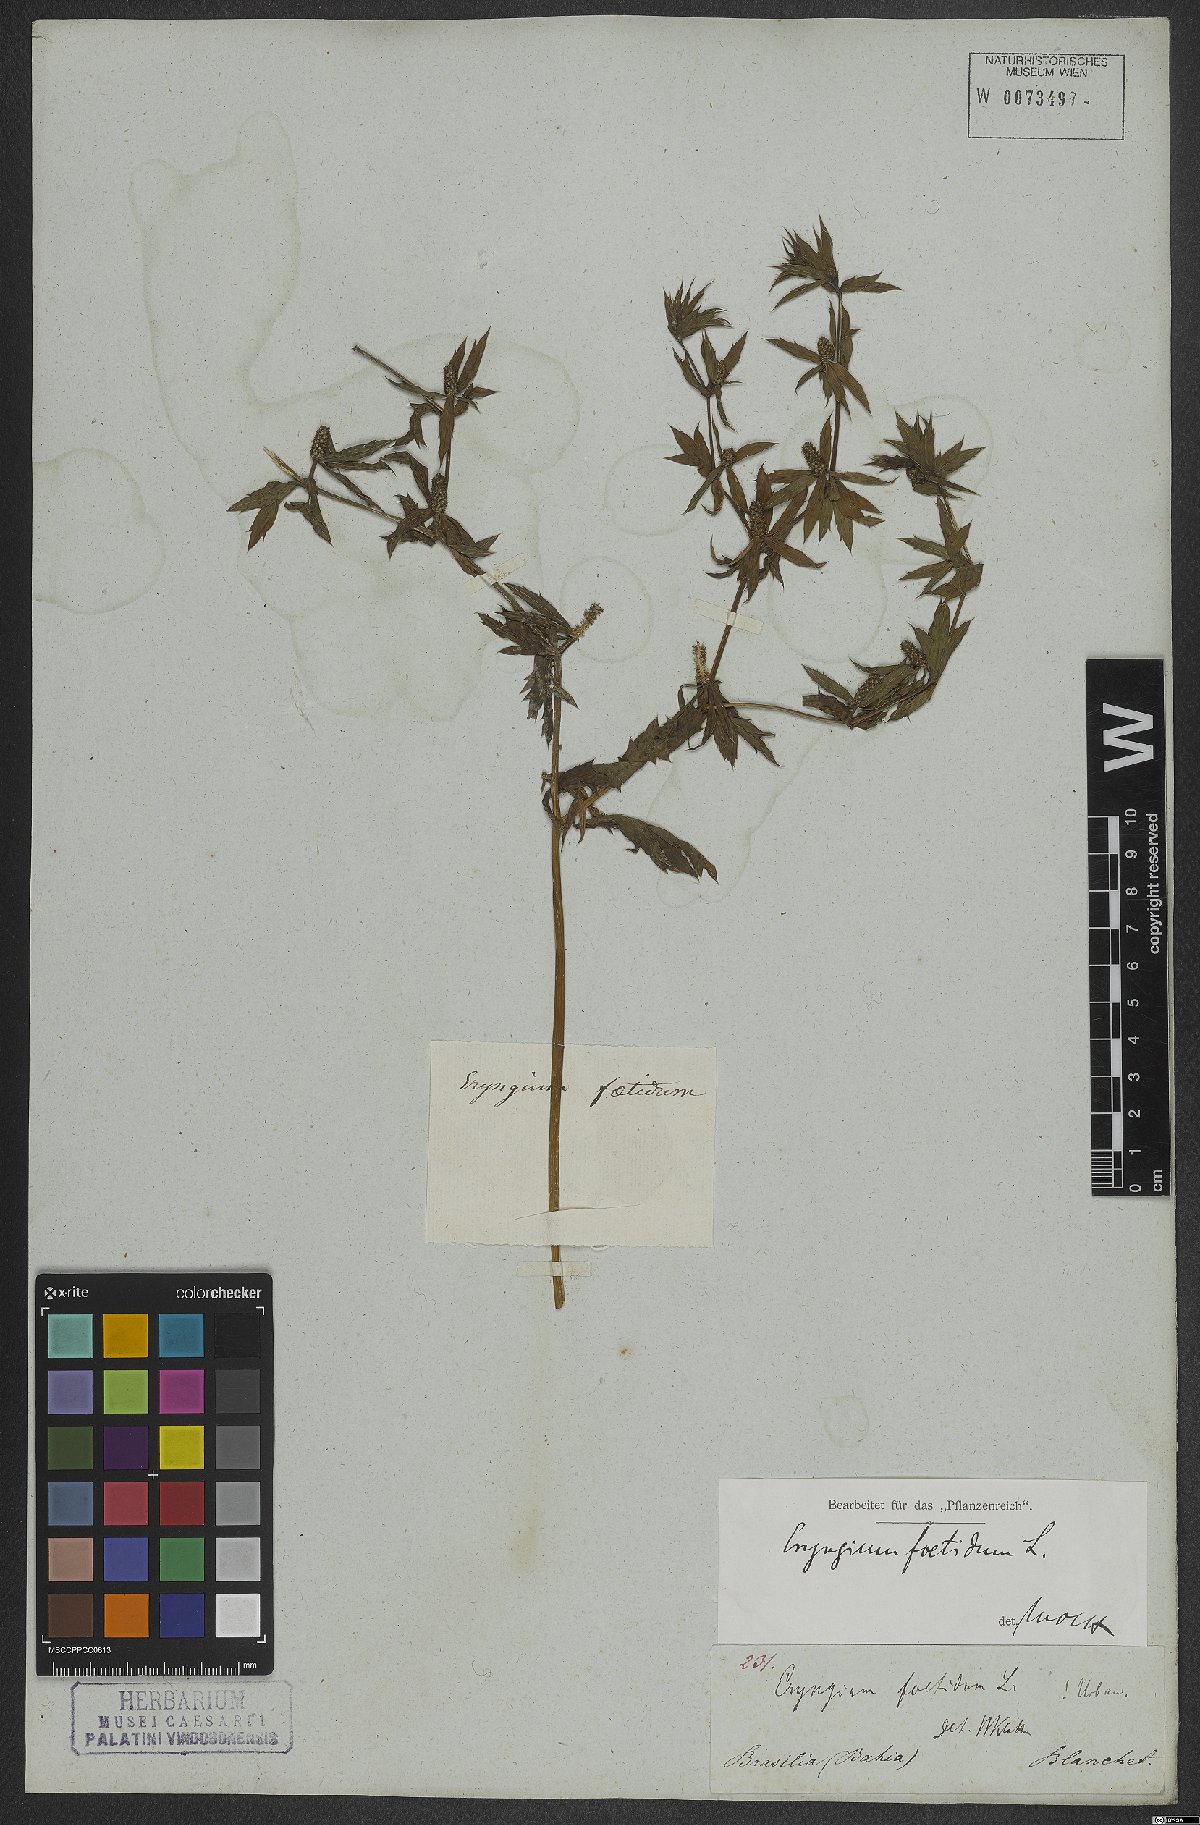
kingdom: Plantae
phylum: Tracheophyta
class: Magnoliopsida
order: Apiales
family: Apiaceae
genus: Eryngium
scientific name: Eryngium foetidum
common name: Fitweed
